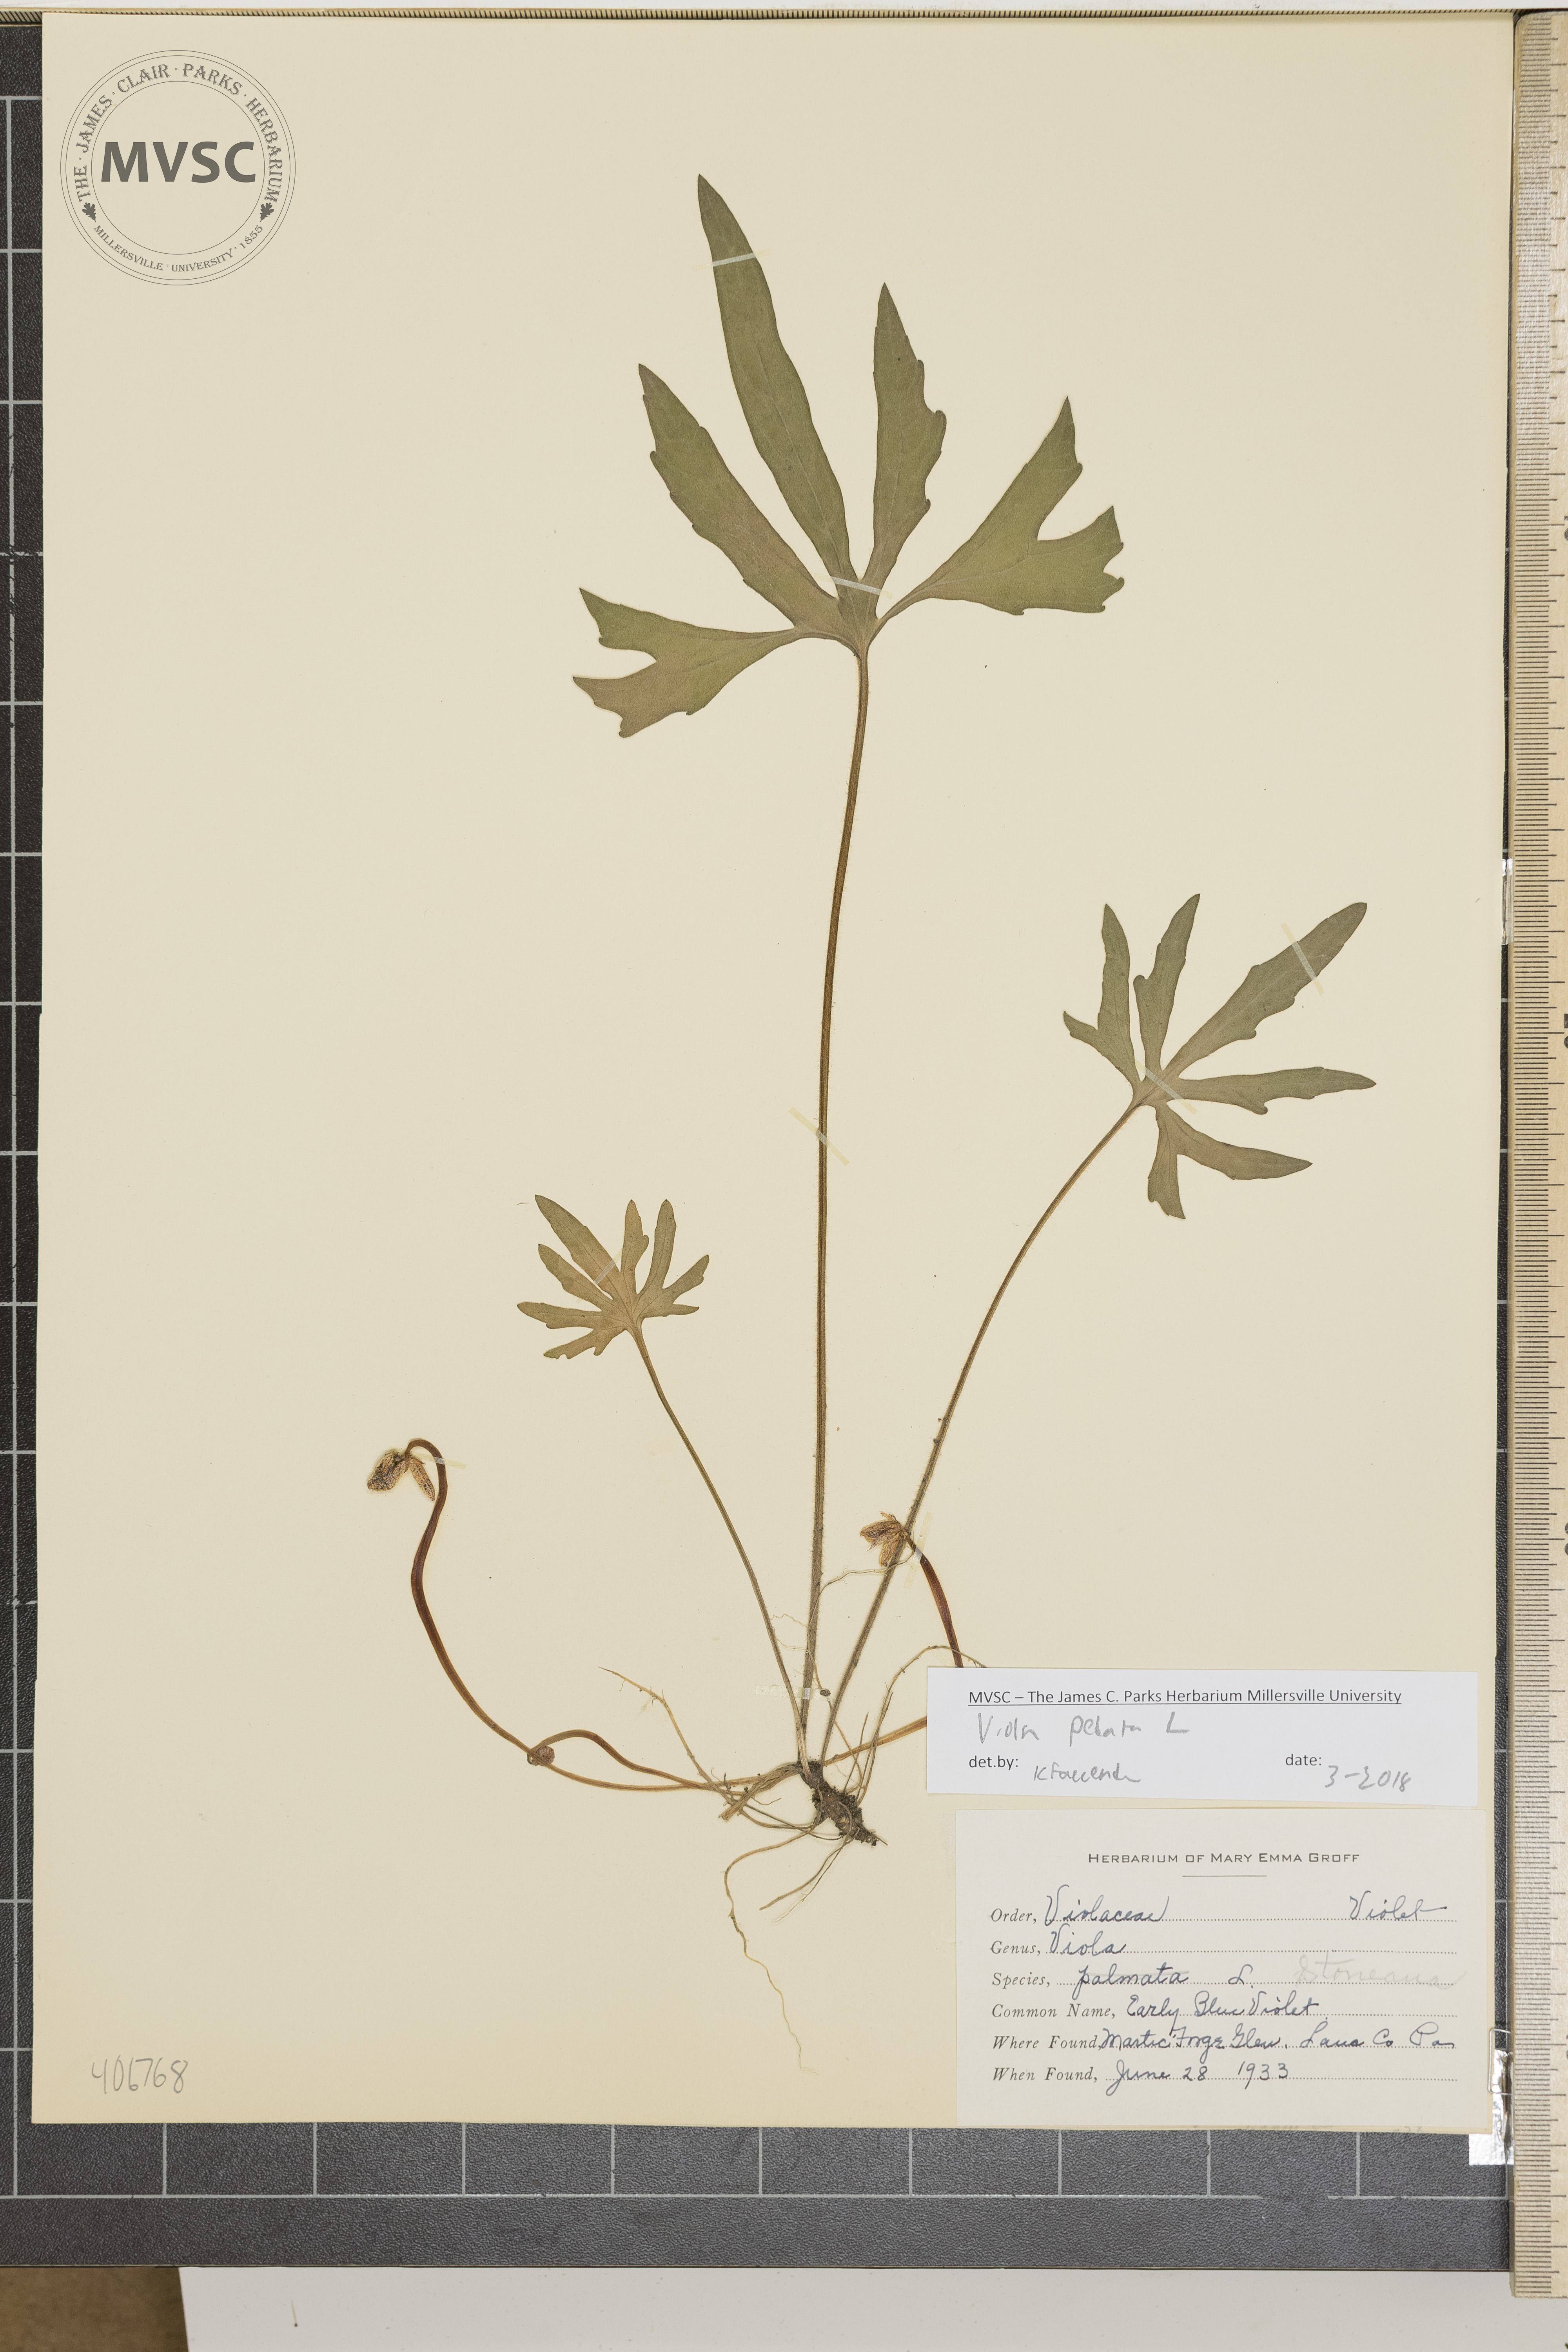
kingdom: Plantae
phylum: Tracheophyta
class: Magnoliopsida
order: Malpighiales
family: Violaceae
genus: Viola
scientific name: Viola pedata
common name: Early Blue Violet
